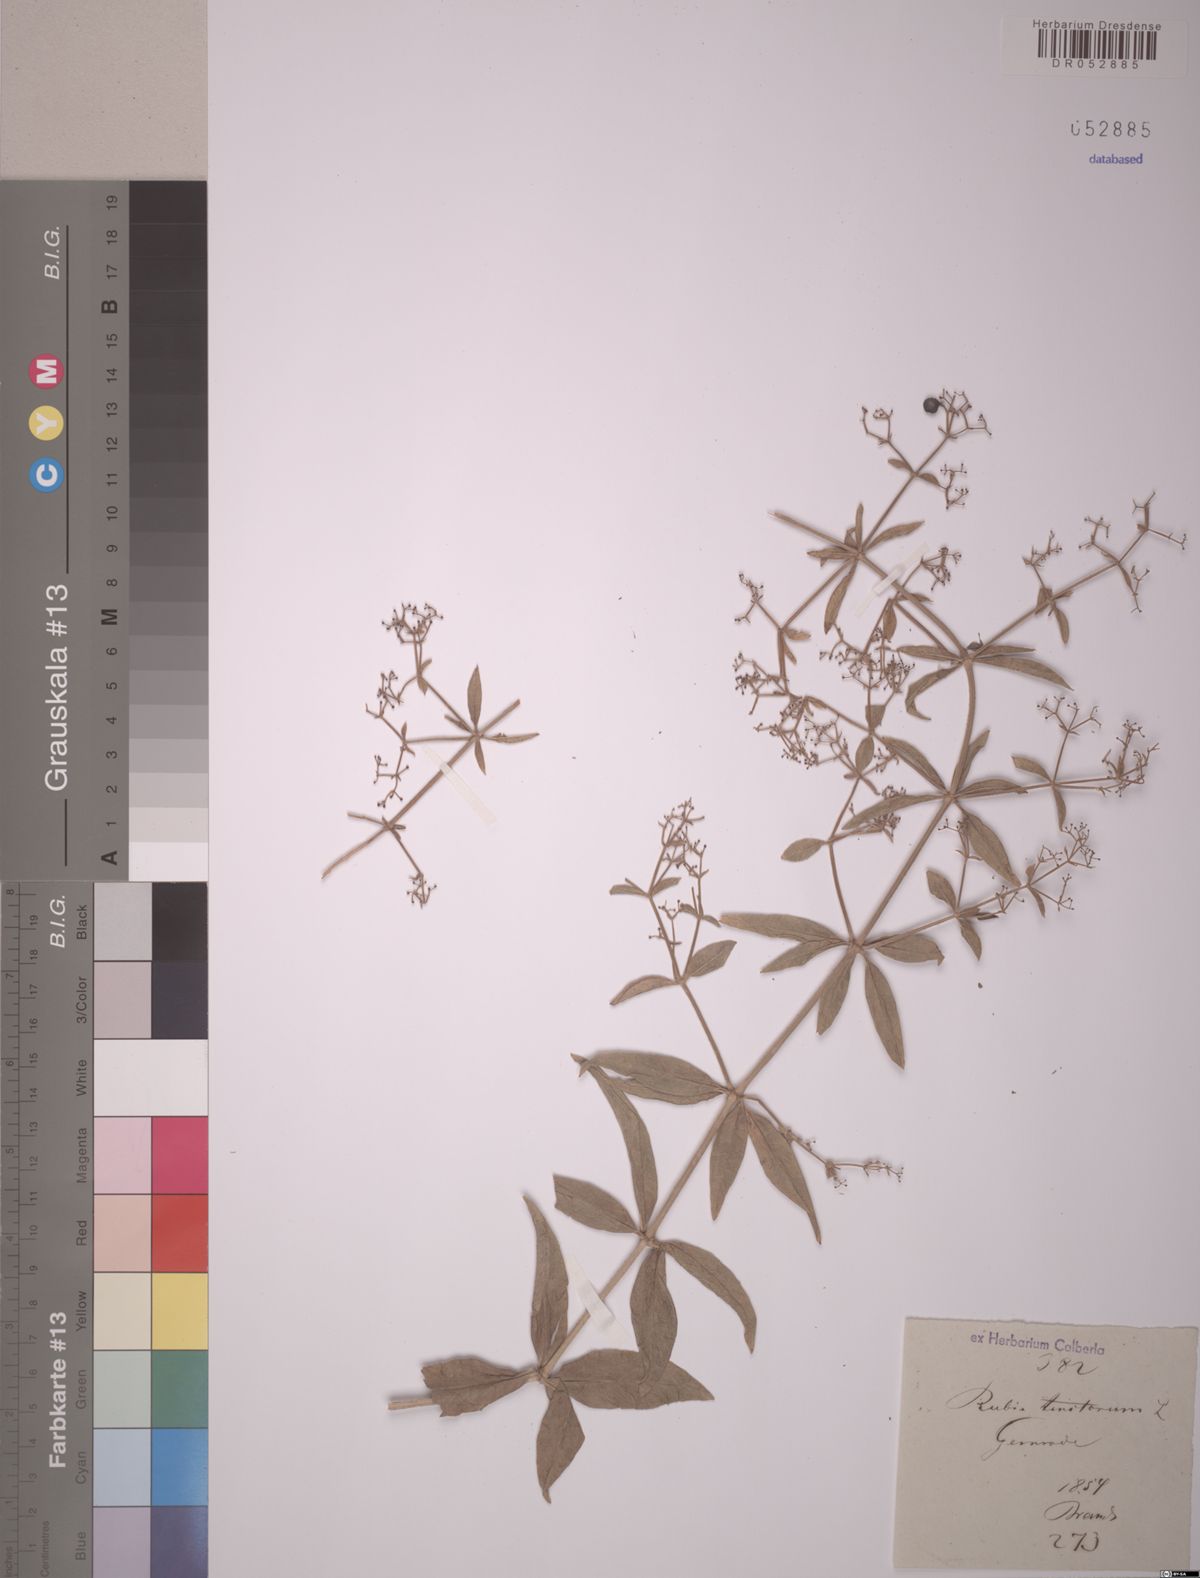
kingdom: Plantae
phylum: Tracheophyta
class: Magnoliopsida
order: Gentianales
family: Rubiaceae
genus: Rubia
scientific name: Rubia tinctorum
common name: Dyer's madder
